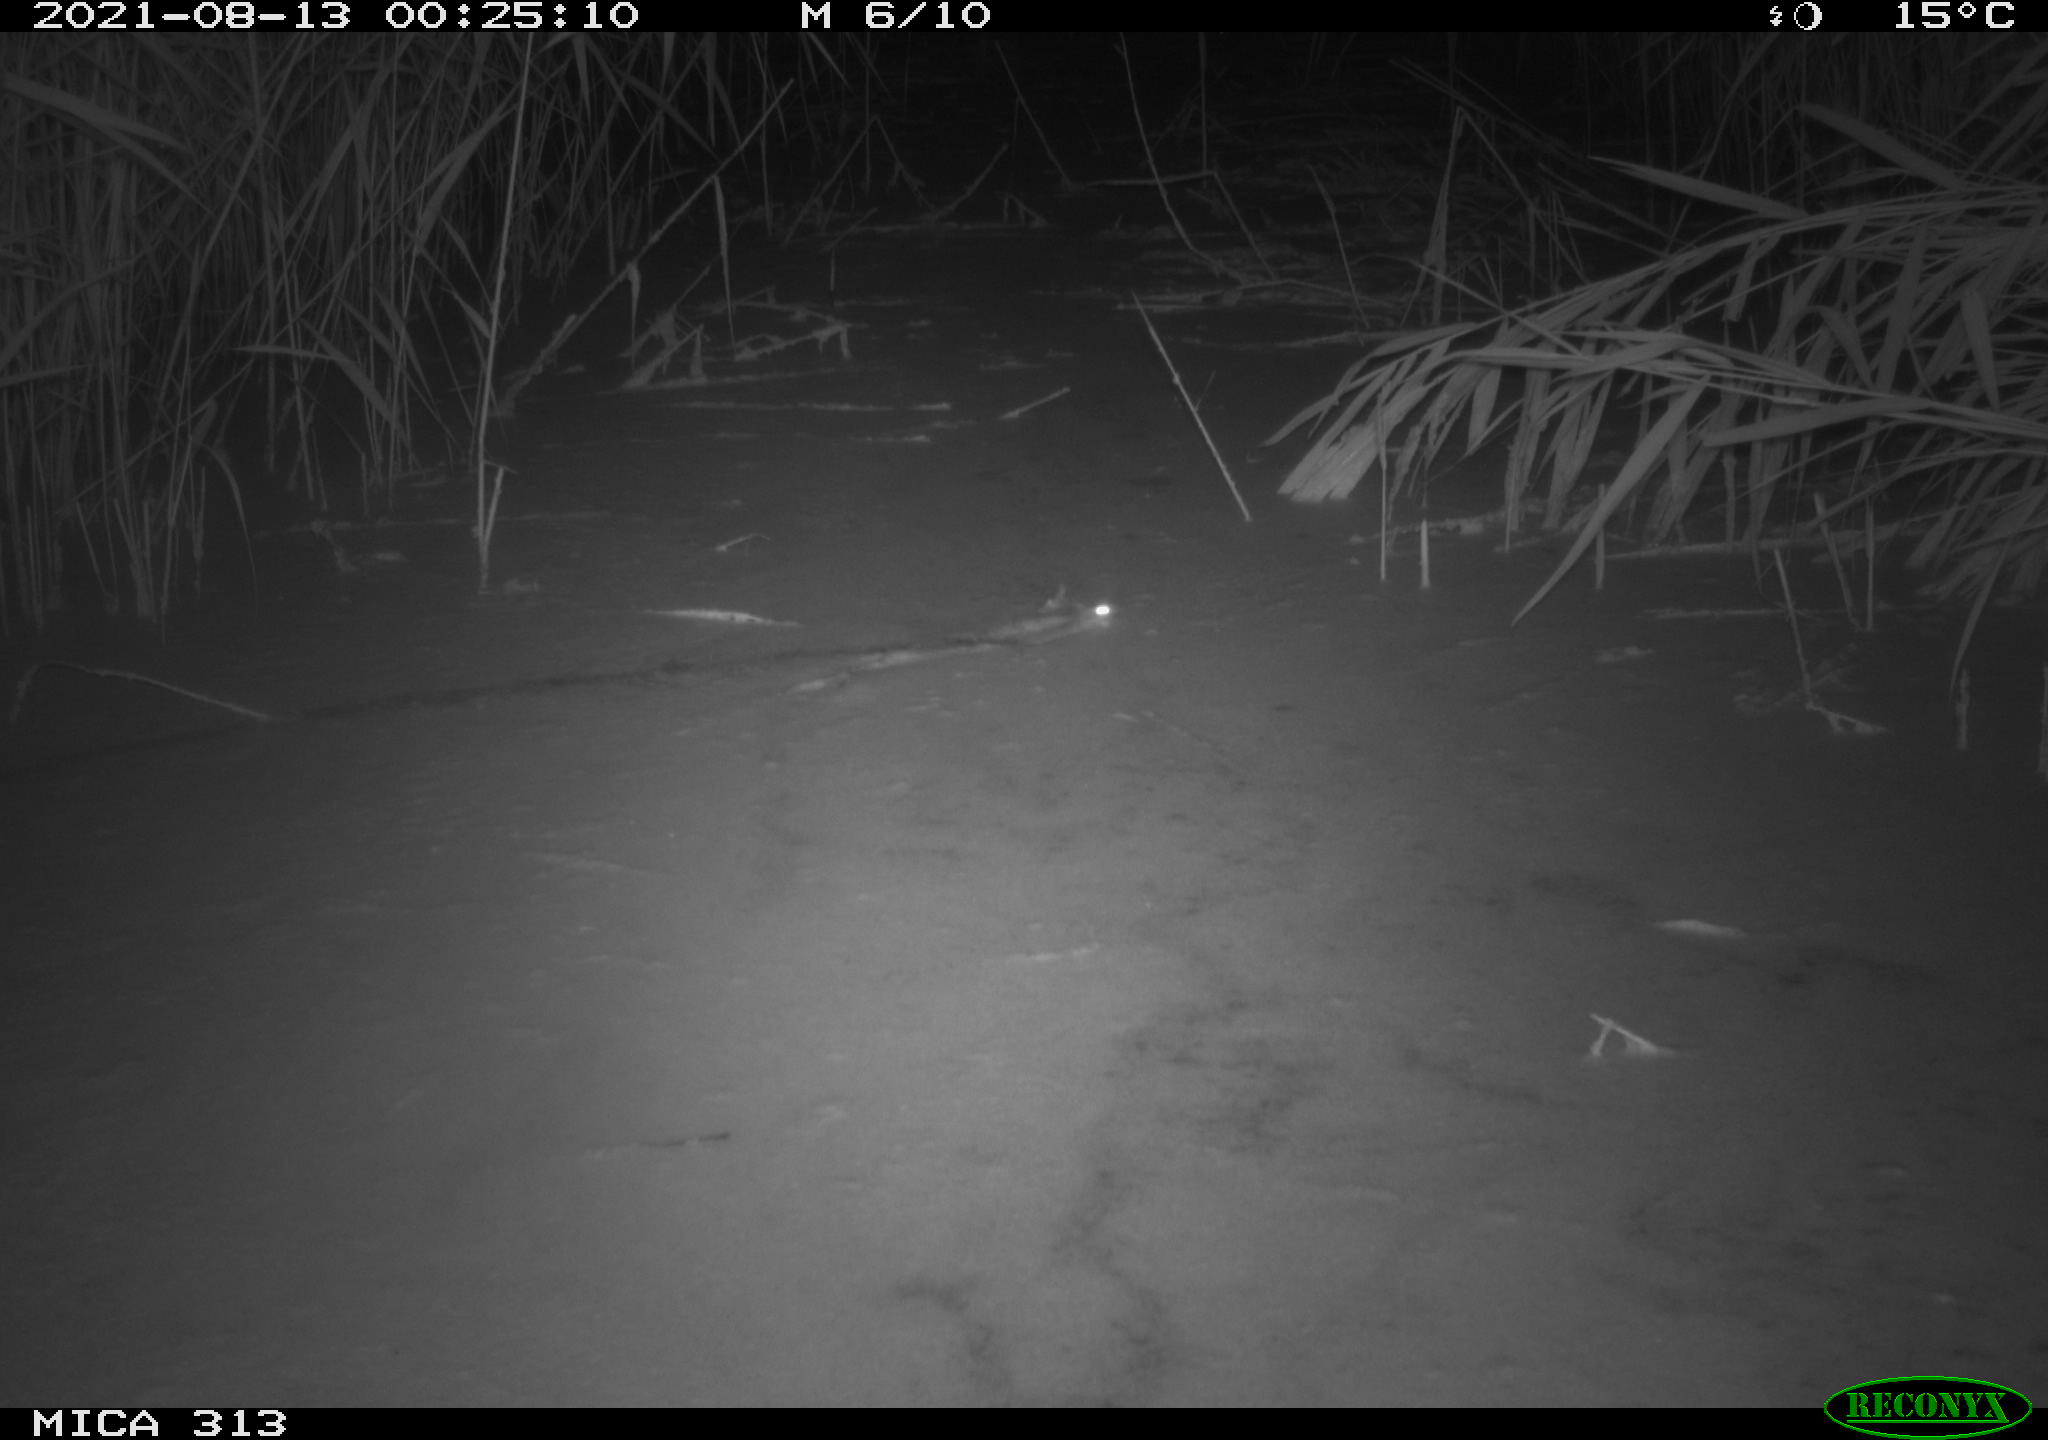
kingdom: Animalia
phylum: Chordata
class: Mammalia
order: Rodentia
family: Muridae
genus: Rattus
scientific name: Rattus norvegicus
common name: Brown rat
